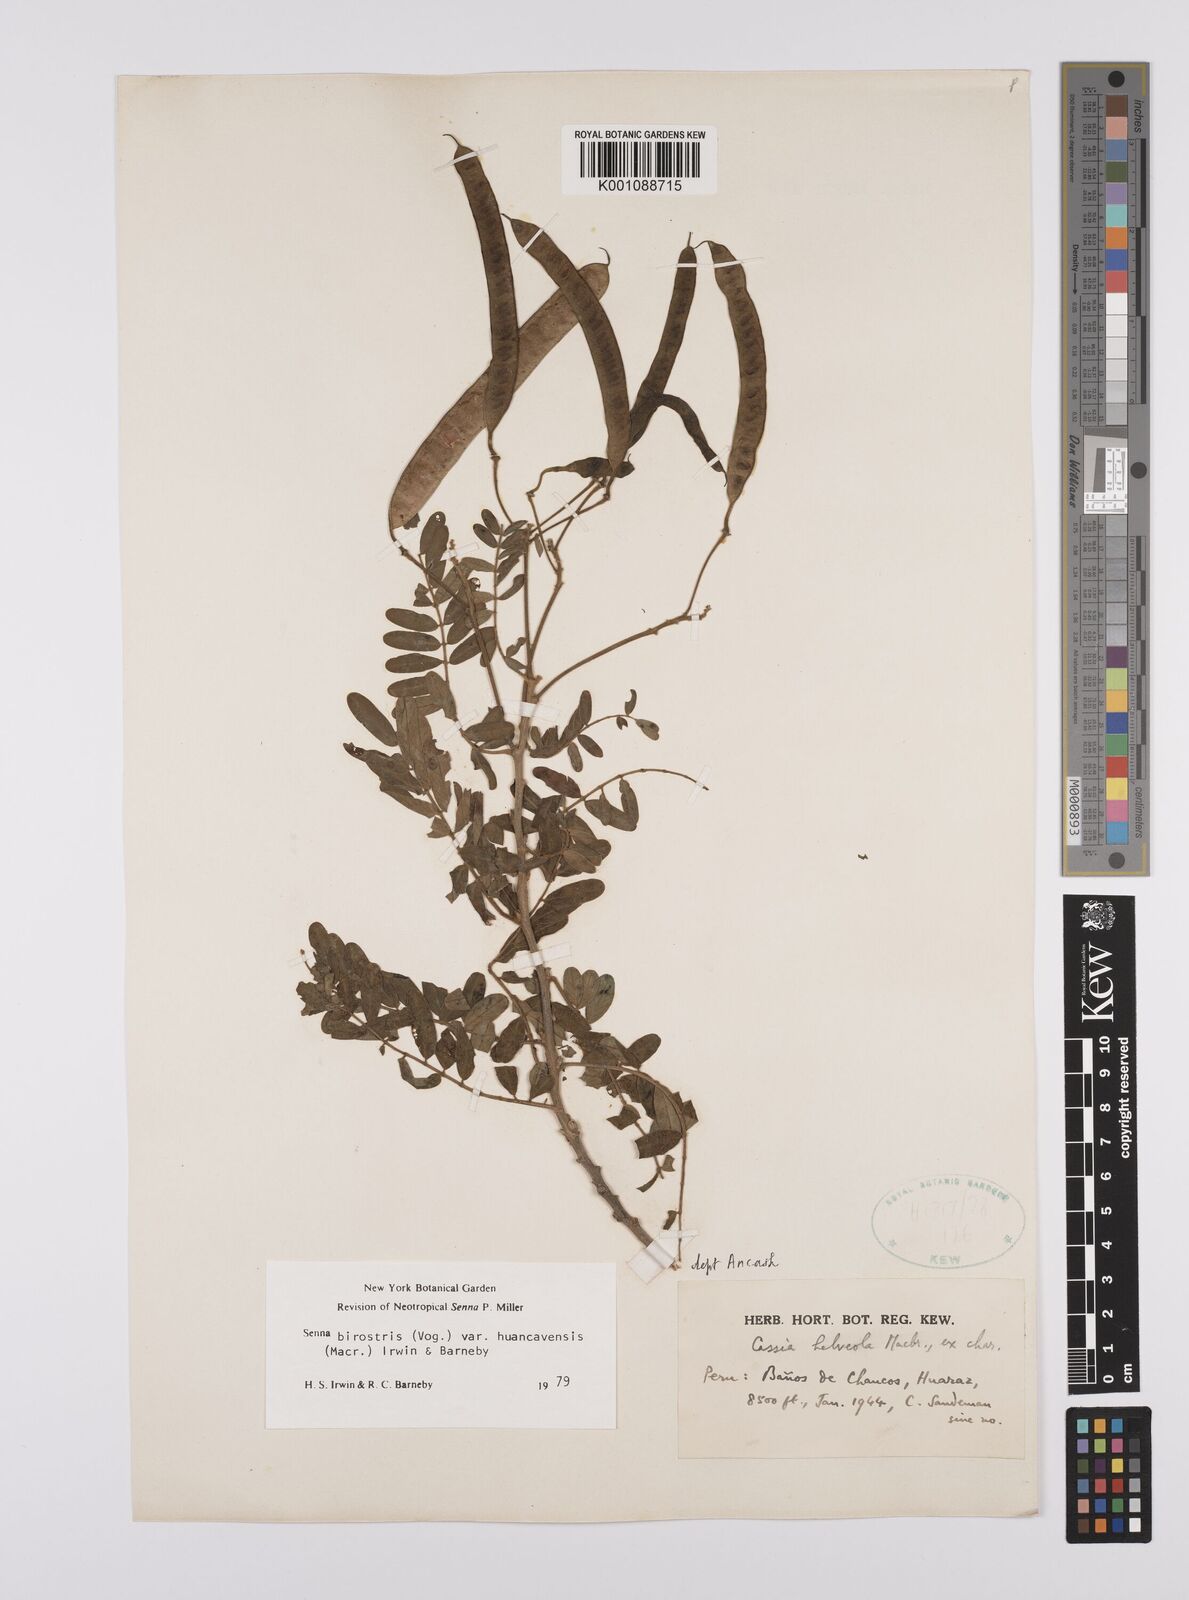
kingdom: Plantae
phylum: Tracheophyta
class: Magnoliopsida
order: Fabales
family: Fabaceae
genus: Senna
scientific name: Senna birostris
